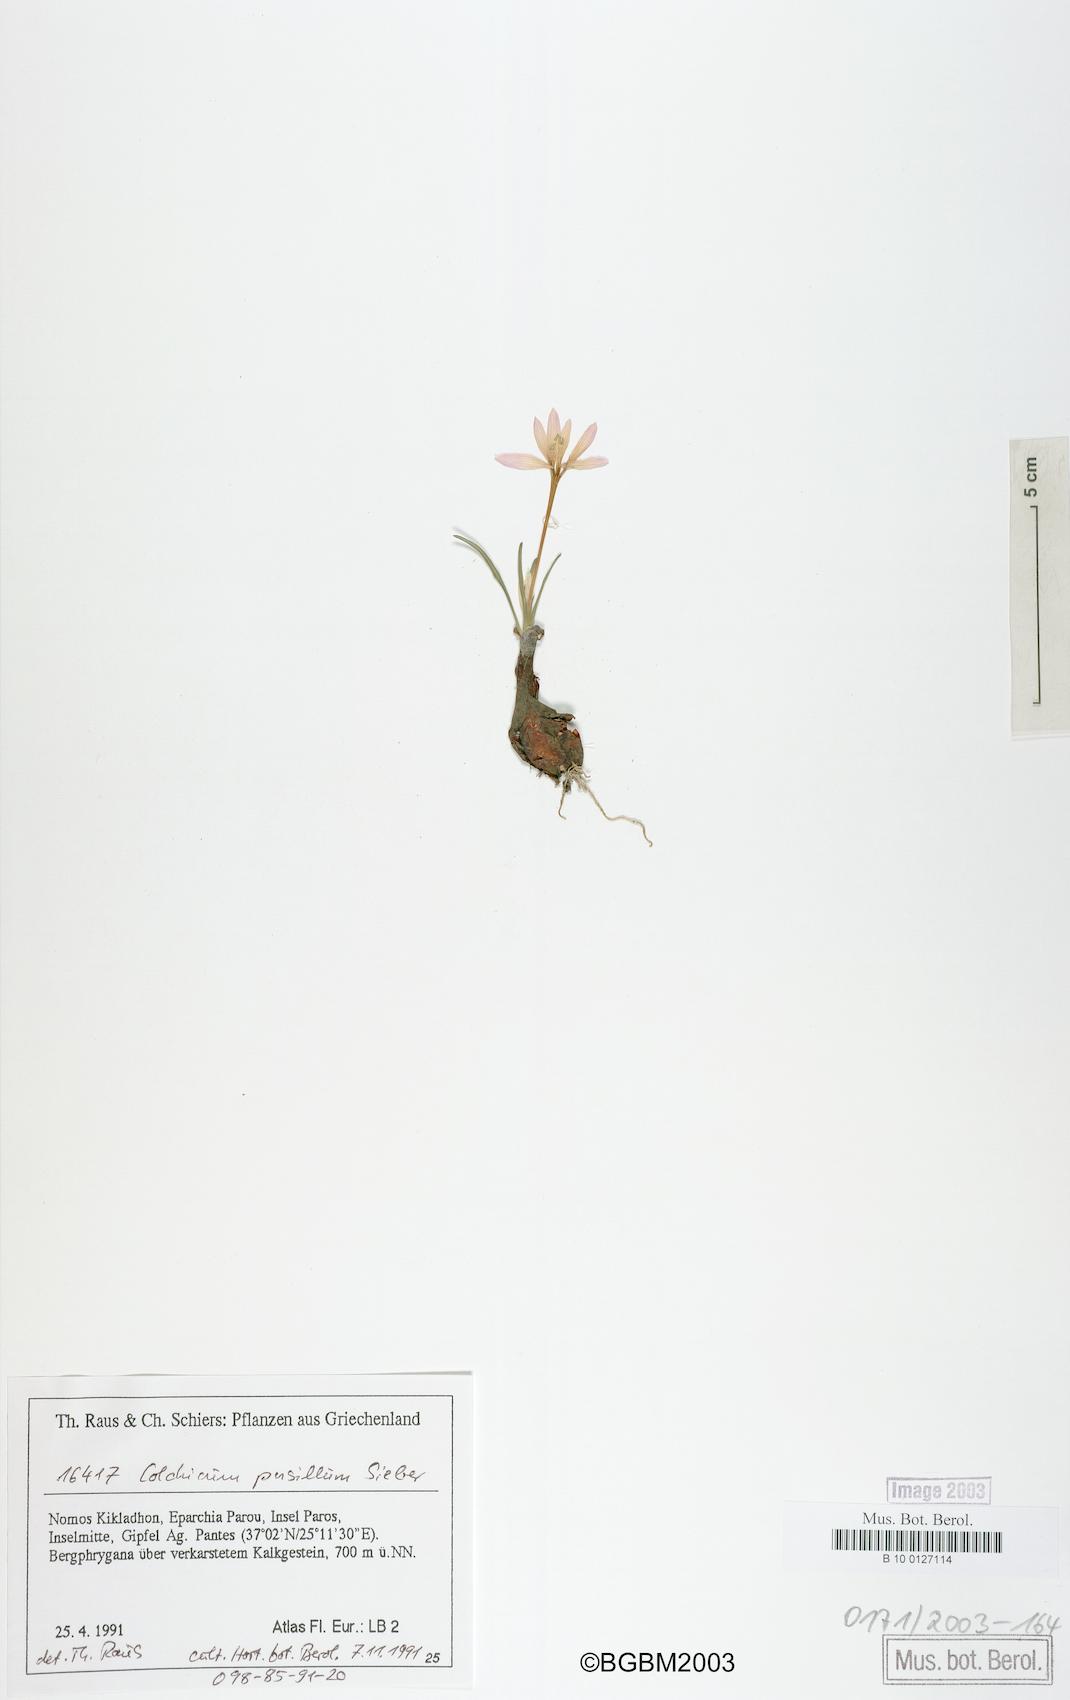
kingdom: Plantae
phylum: Tracheophyta
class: Liliopsida
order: Liliales
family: Colchicaceae
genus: Colchicum
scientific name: Colchicum pusillum
